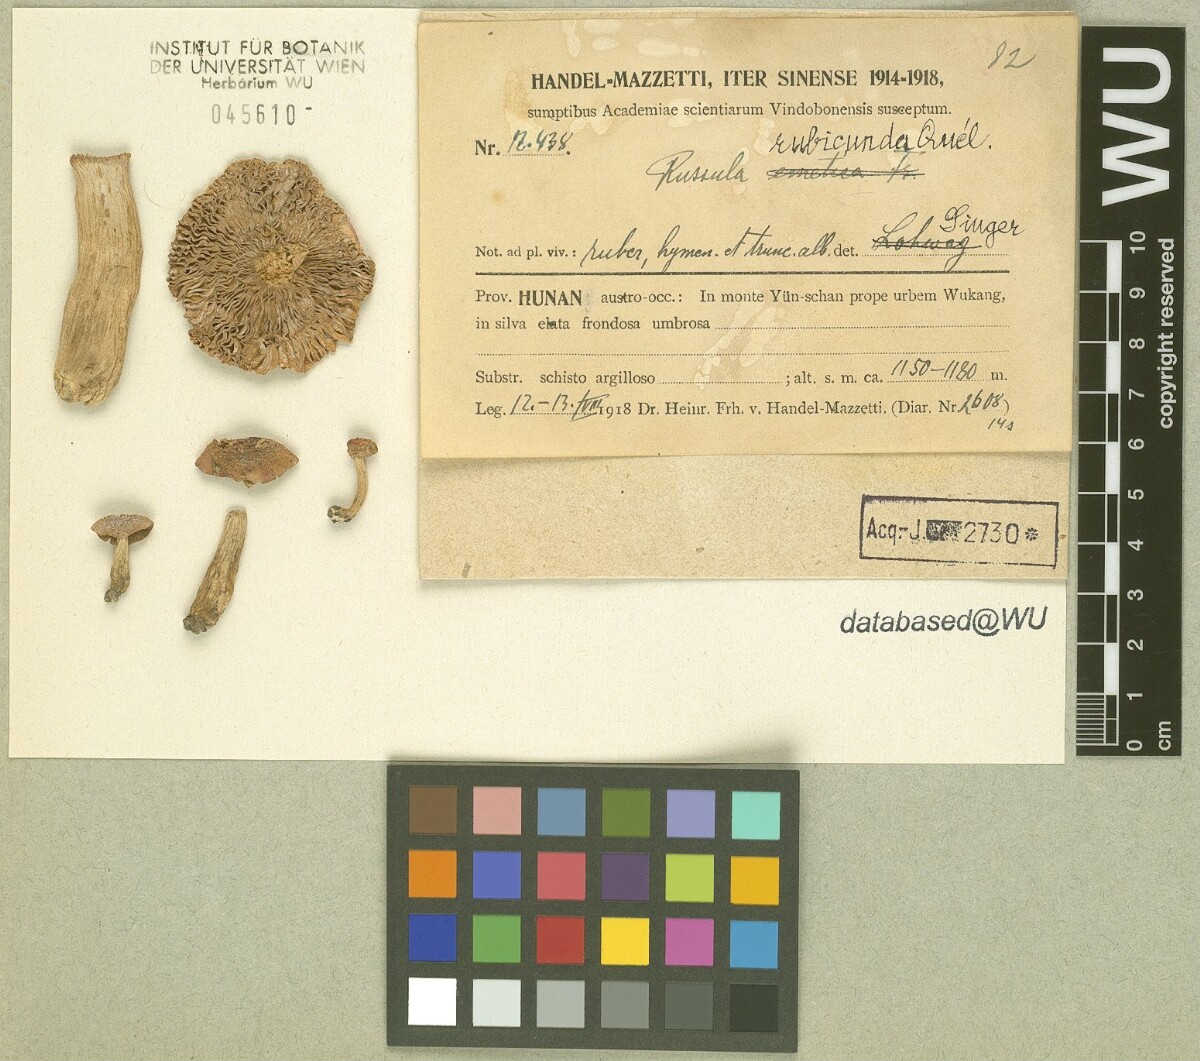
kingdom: Fungi
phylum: Basidiomycota
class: Agaricomycetes
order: Russulales
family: Russulaceae
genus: Russula
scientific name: Russula persicina
